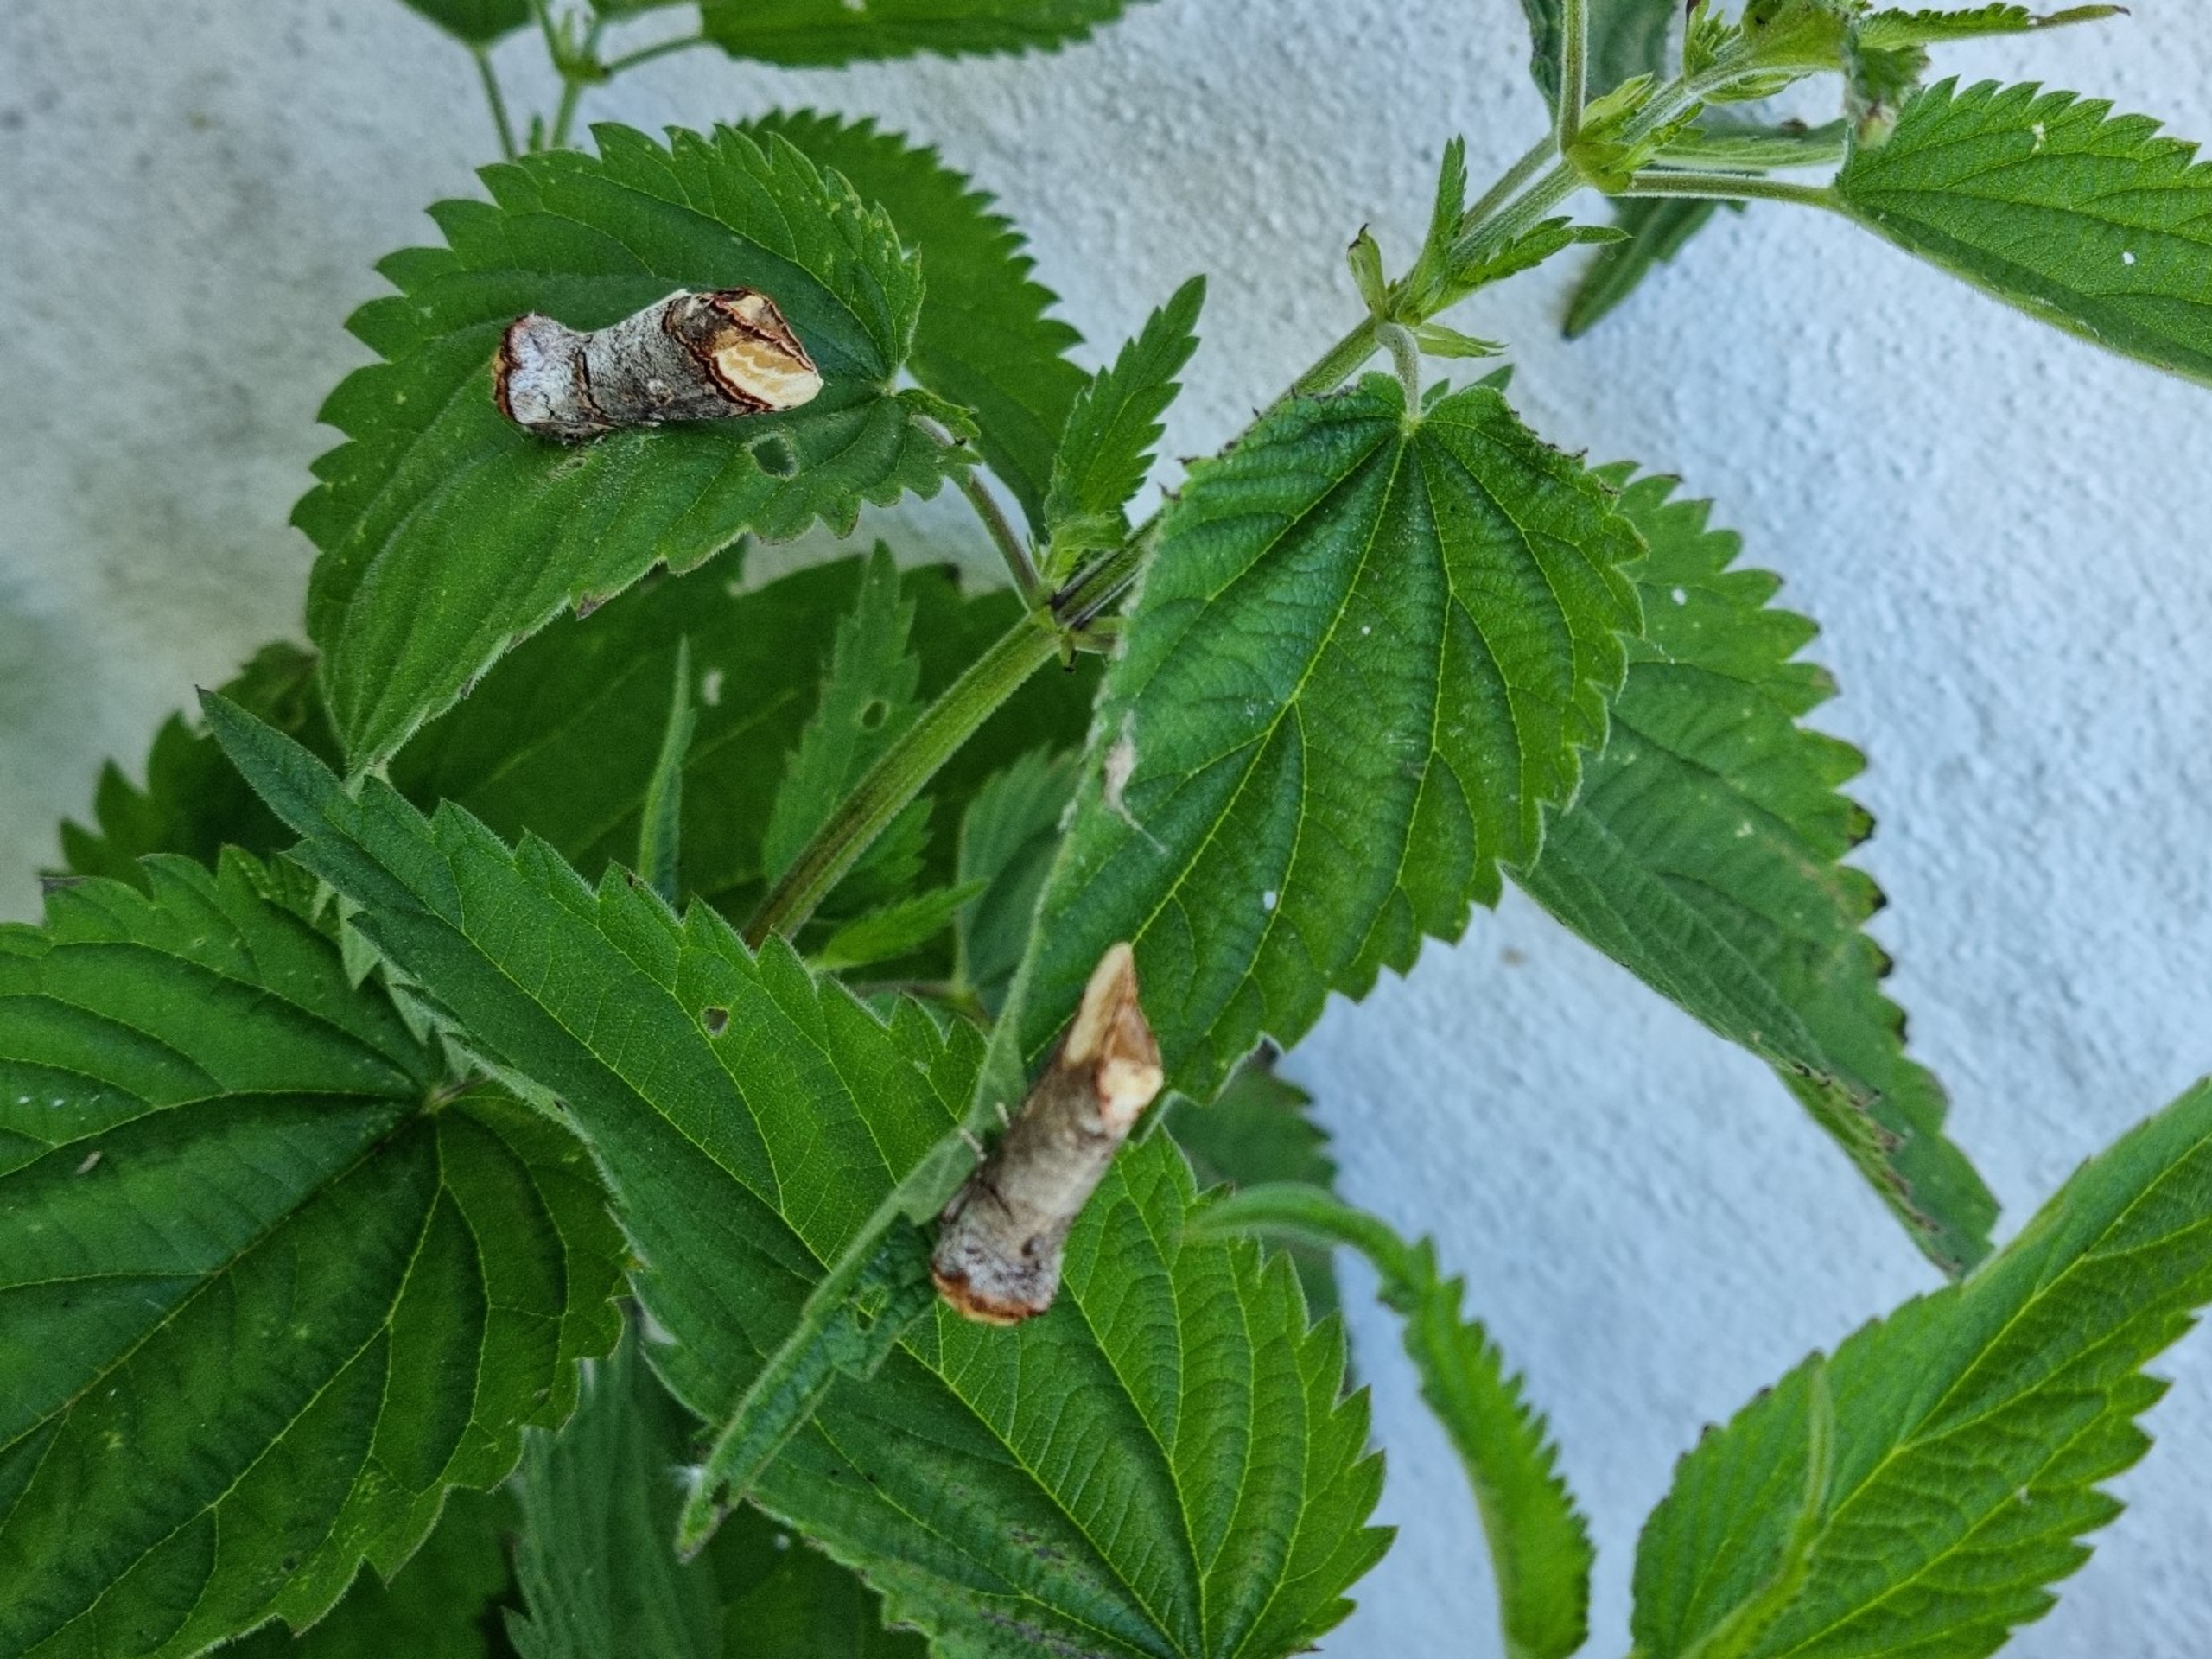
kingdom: Animalia
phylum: Arthropoda
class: Insecta
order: Lepidoptera
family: Notodontidae
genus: Phalera
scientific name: Phalera bucephala
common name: Måneplet
